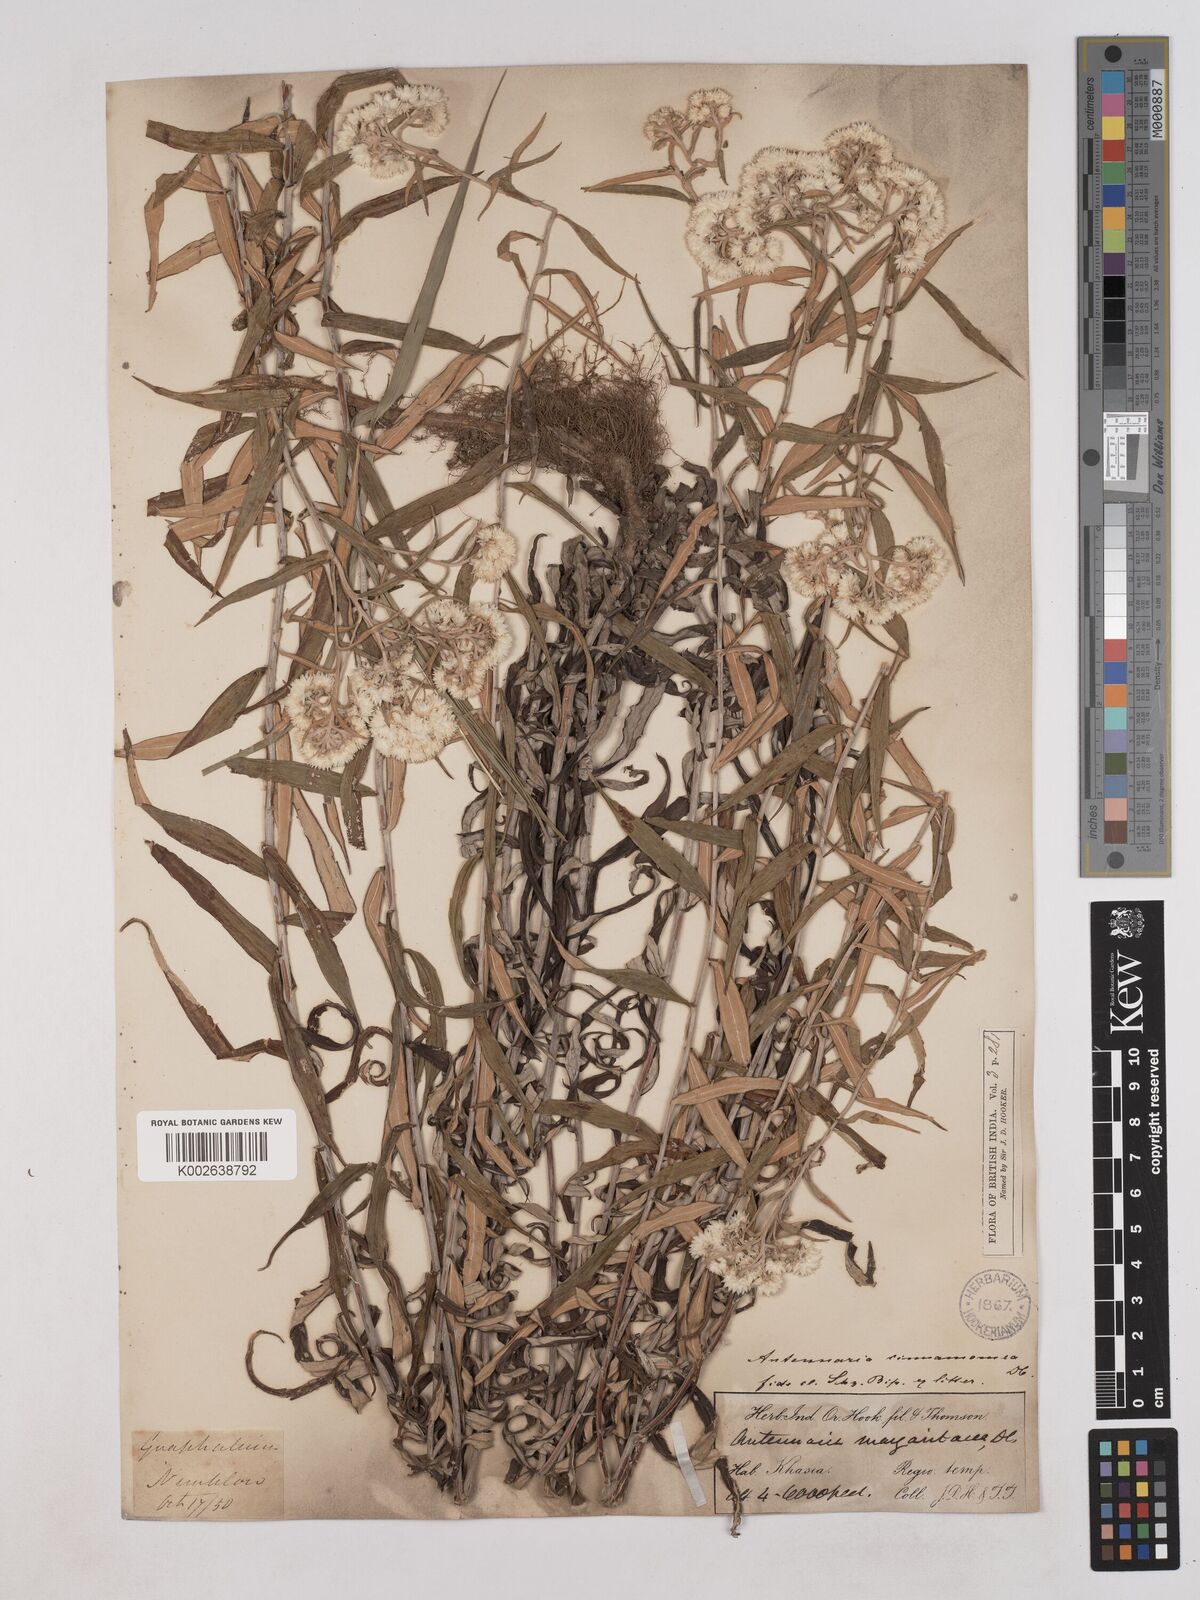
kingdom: Plantae
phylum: Tracheophyta
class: Magnoliopsida
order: Asterales
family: Asteraceae
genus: Anaphalis
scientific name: Anaphalis marcescens
